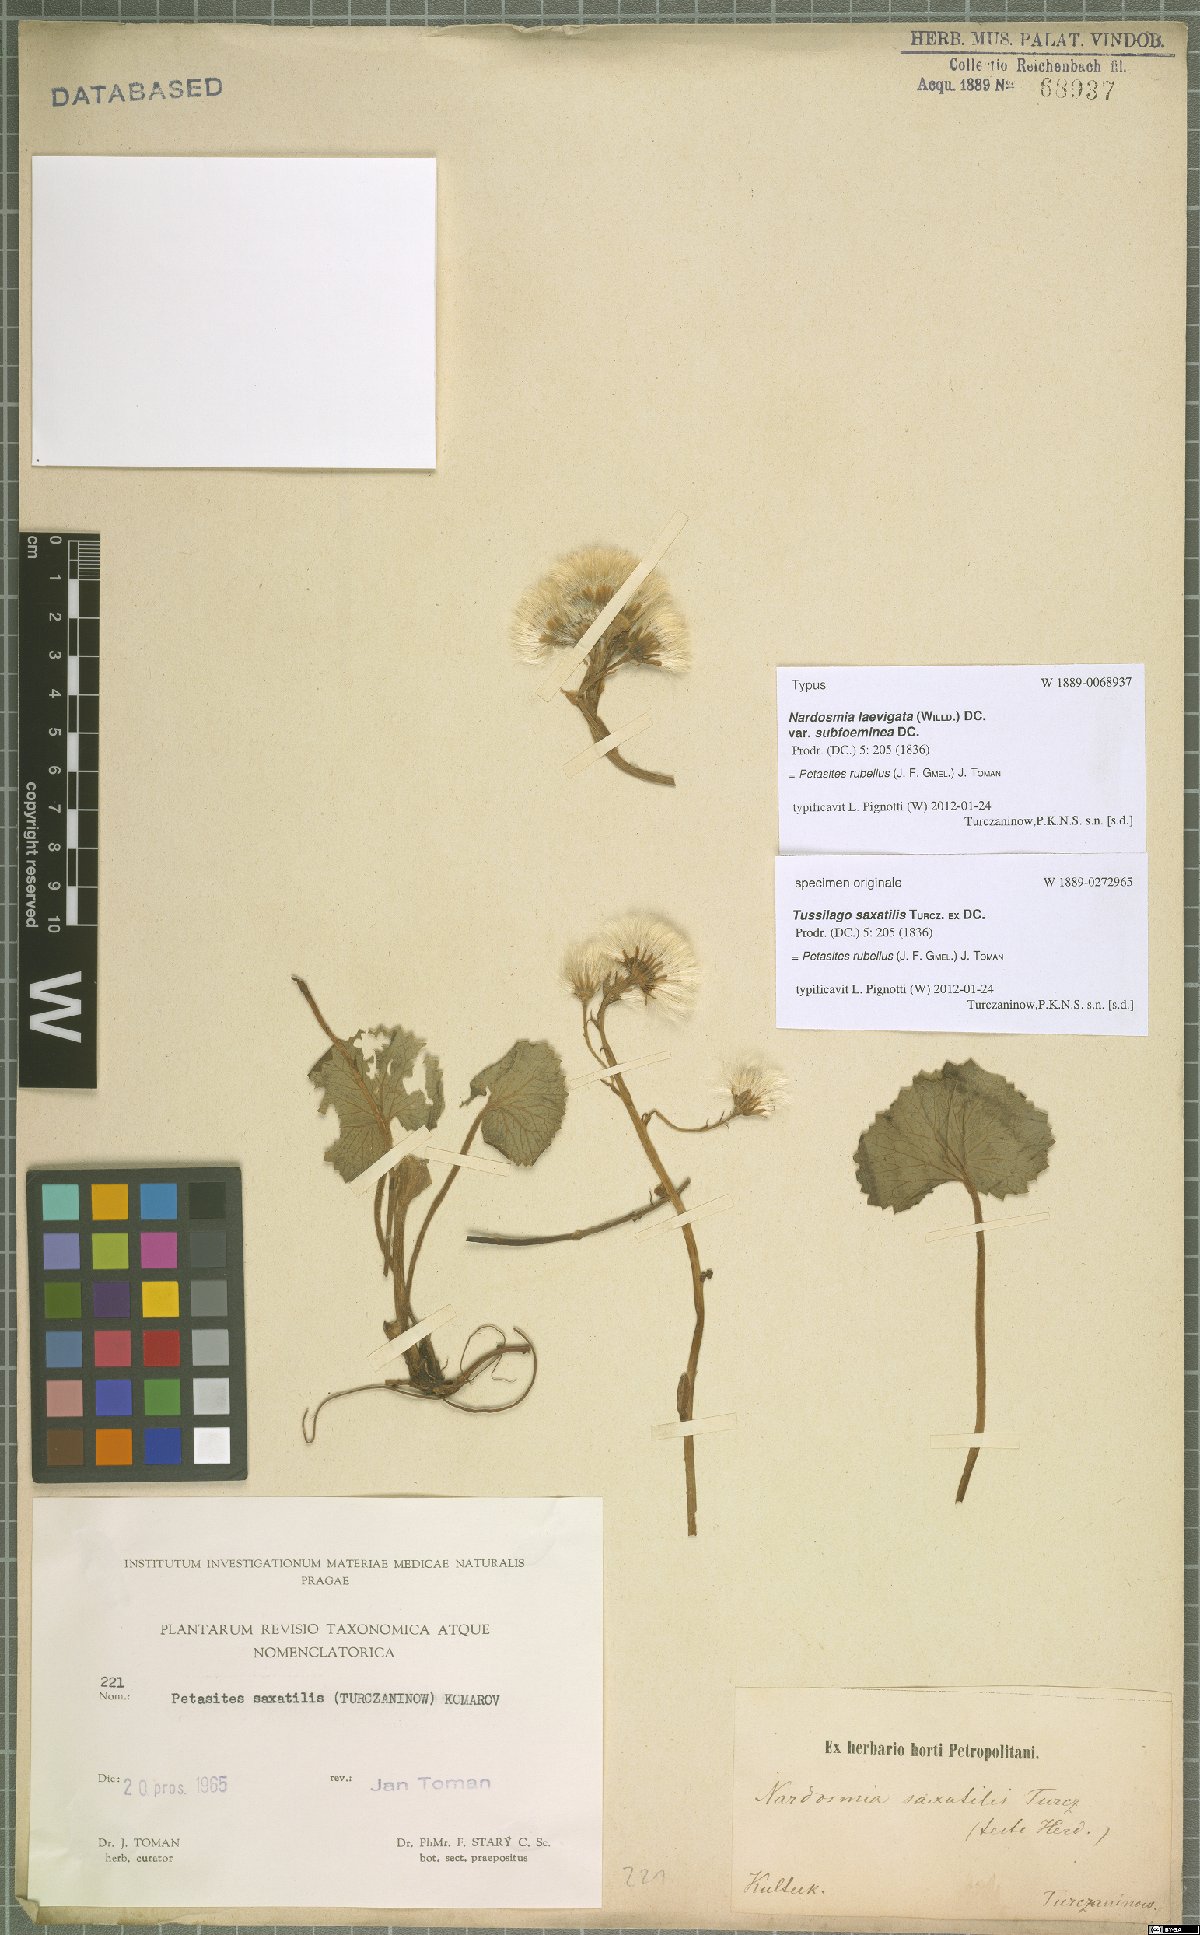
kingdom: Plantae
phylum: Tracheophyta
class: Magnoliopsida
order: Asterales
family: Asteraceae
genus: Petasites
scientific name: Petasites rubellus
